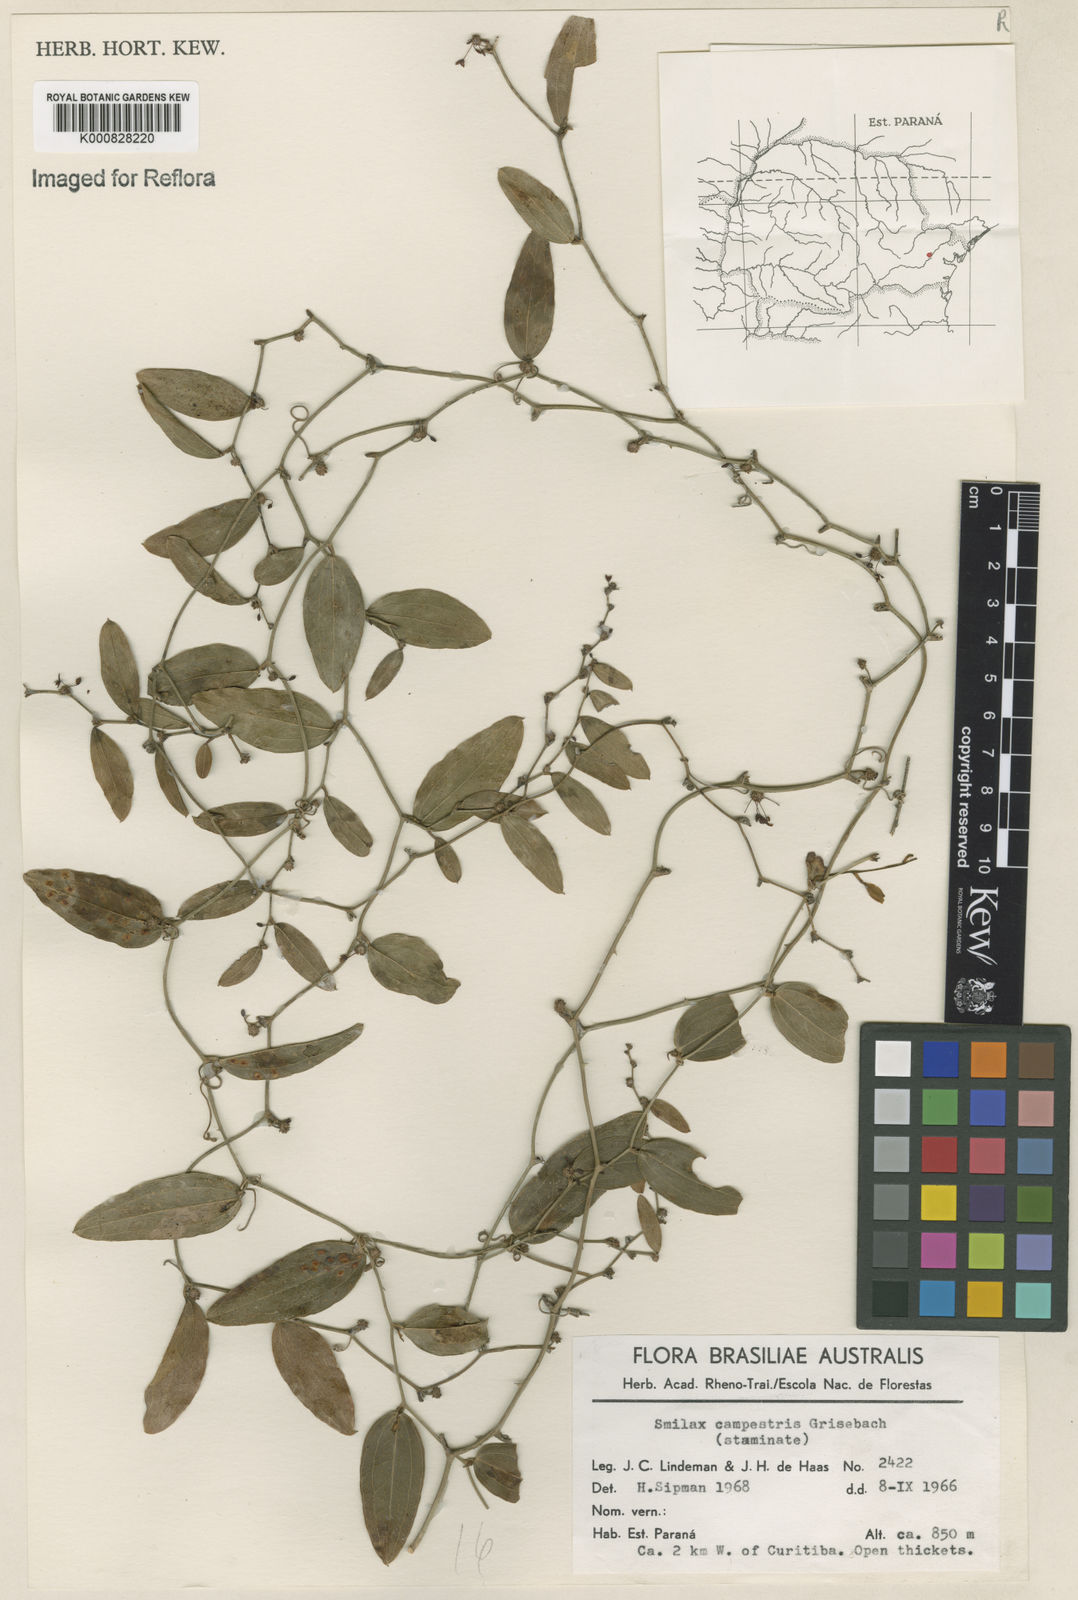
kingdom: Plantae
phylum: Tracheophyta
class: Liliopsida
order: Liliales
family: Smilacaceae
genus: Smilax
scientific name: Smilax campestris
